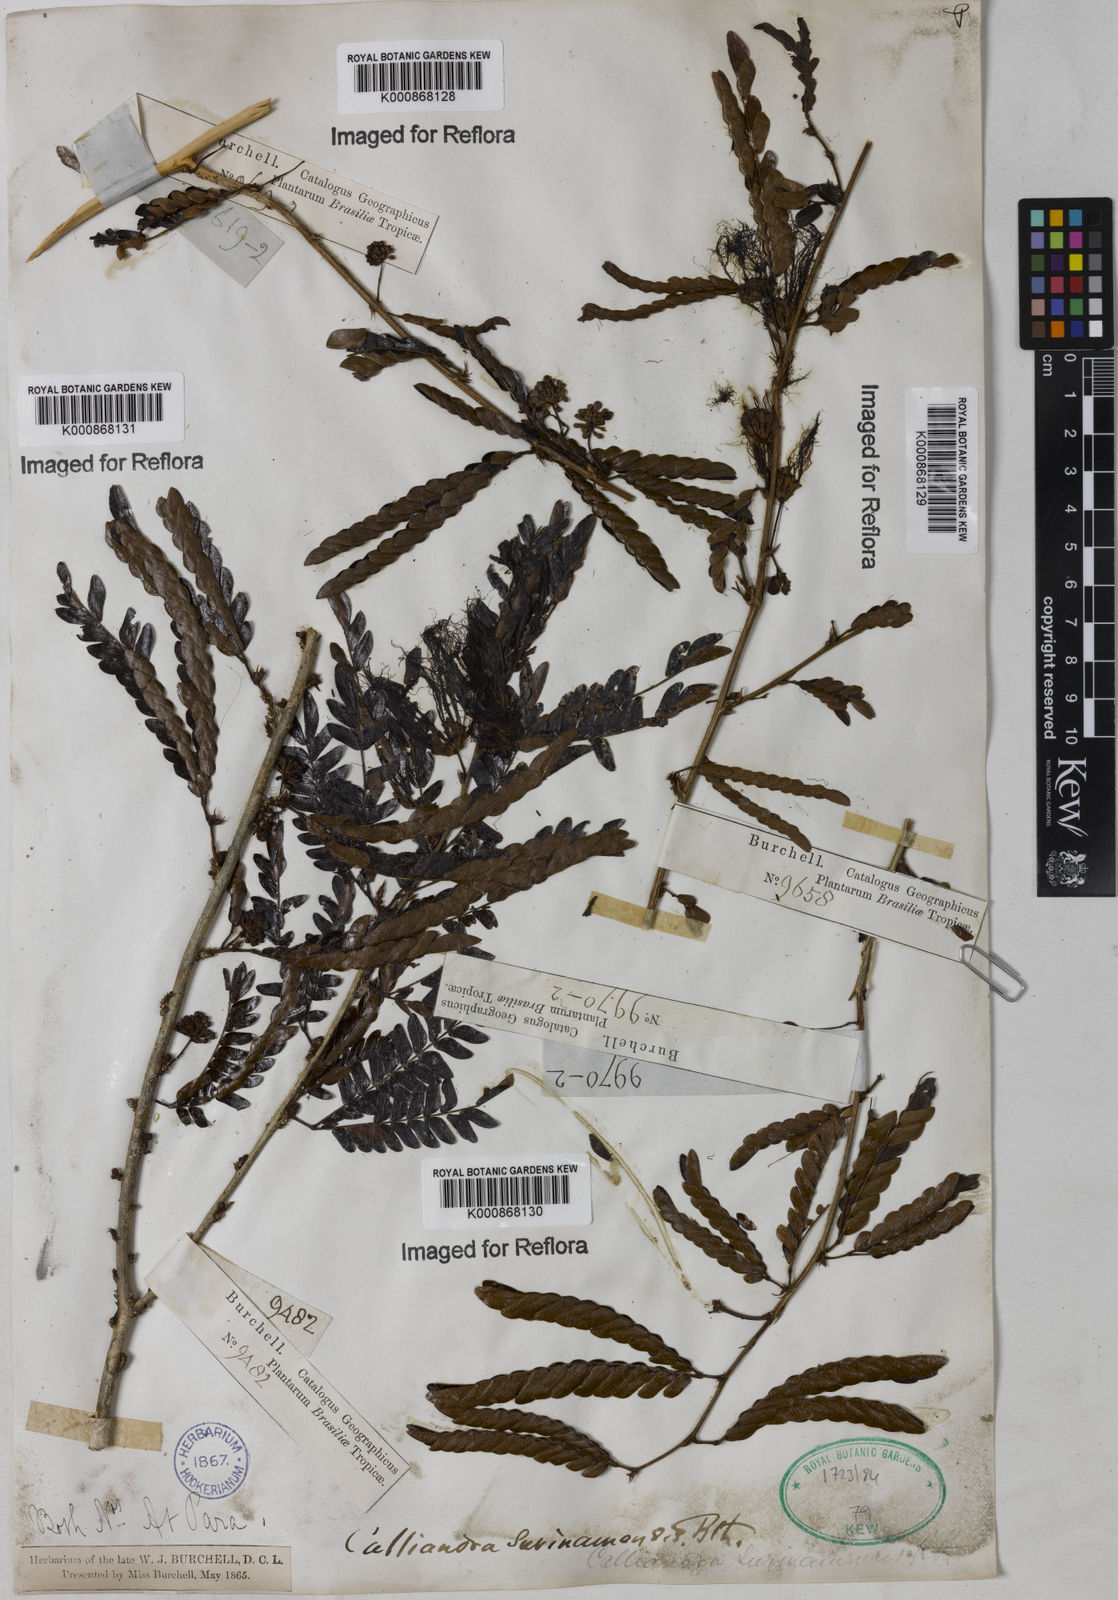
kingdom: Plantae
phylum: Tracheophyta
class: Magnoliopsida
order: Fabales
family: Fabaceae
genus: Calliandra
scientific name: Calliandra surinamensis
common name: Pink powder puff
